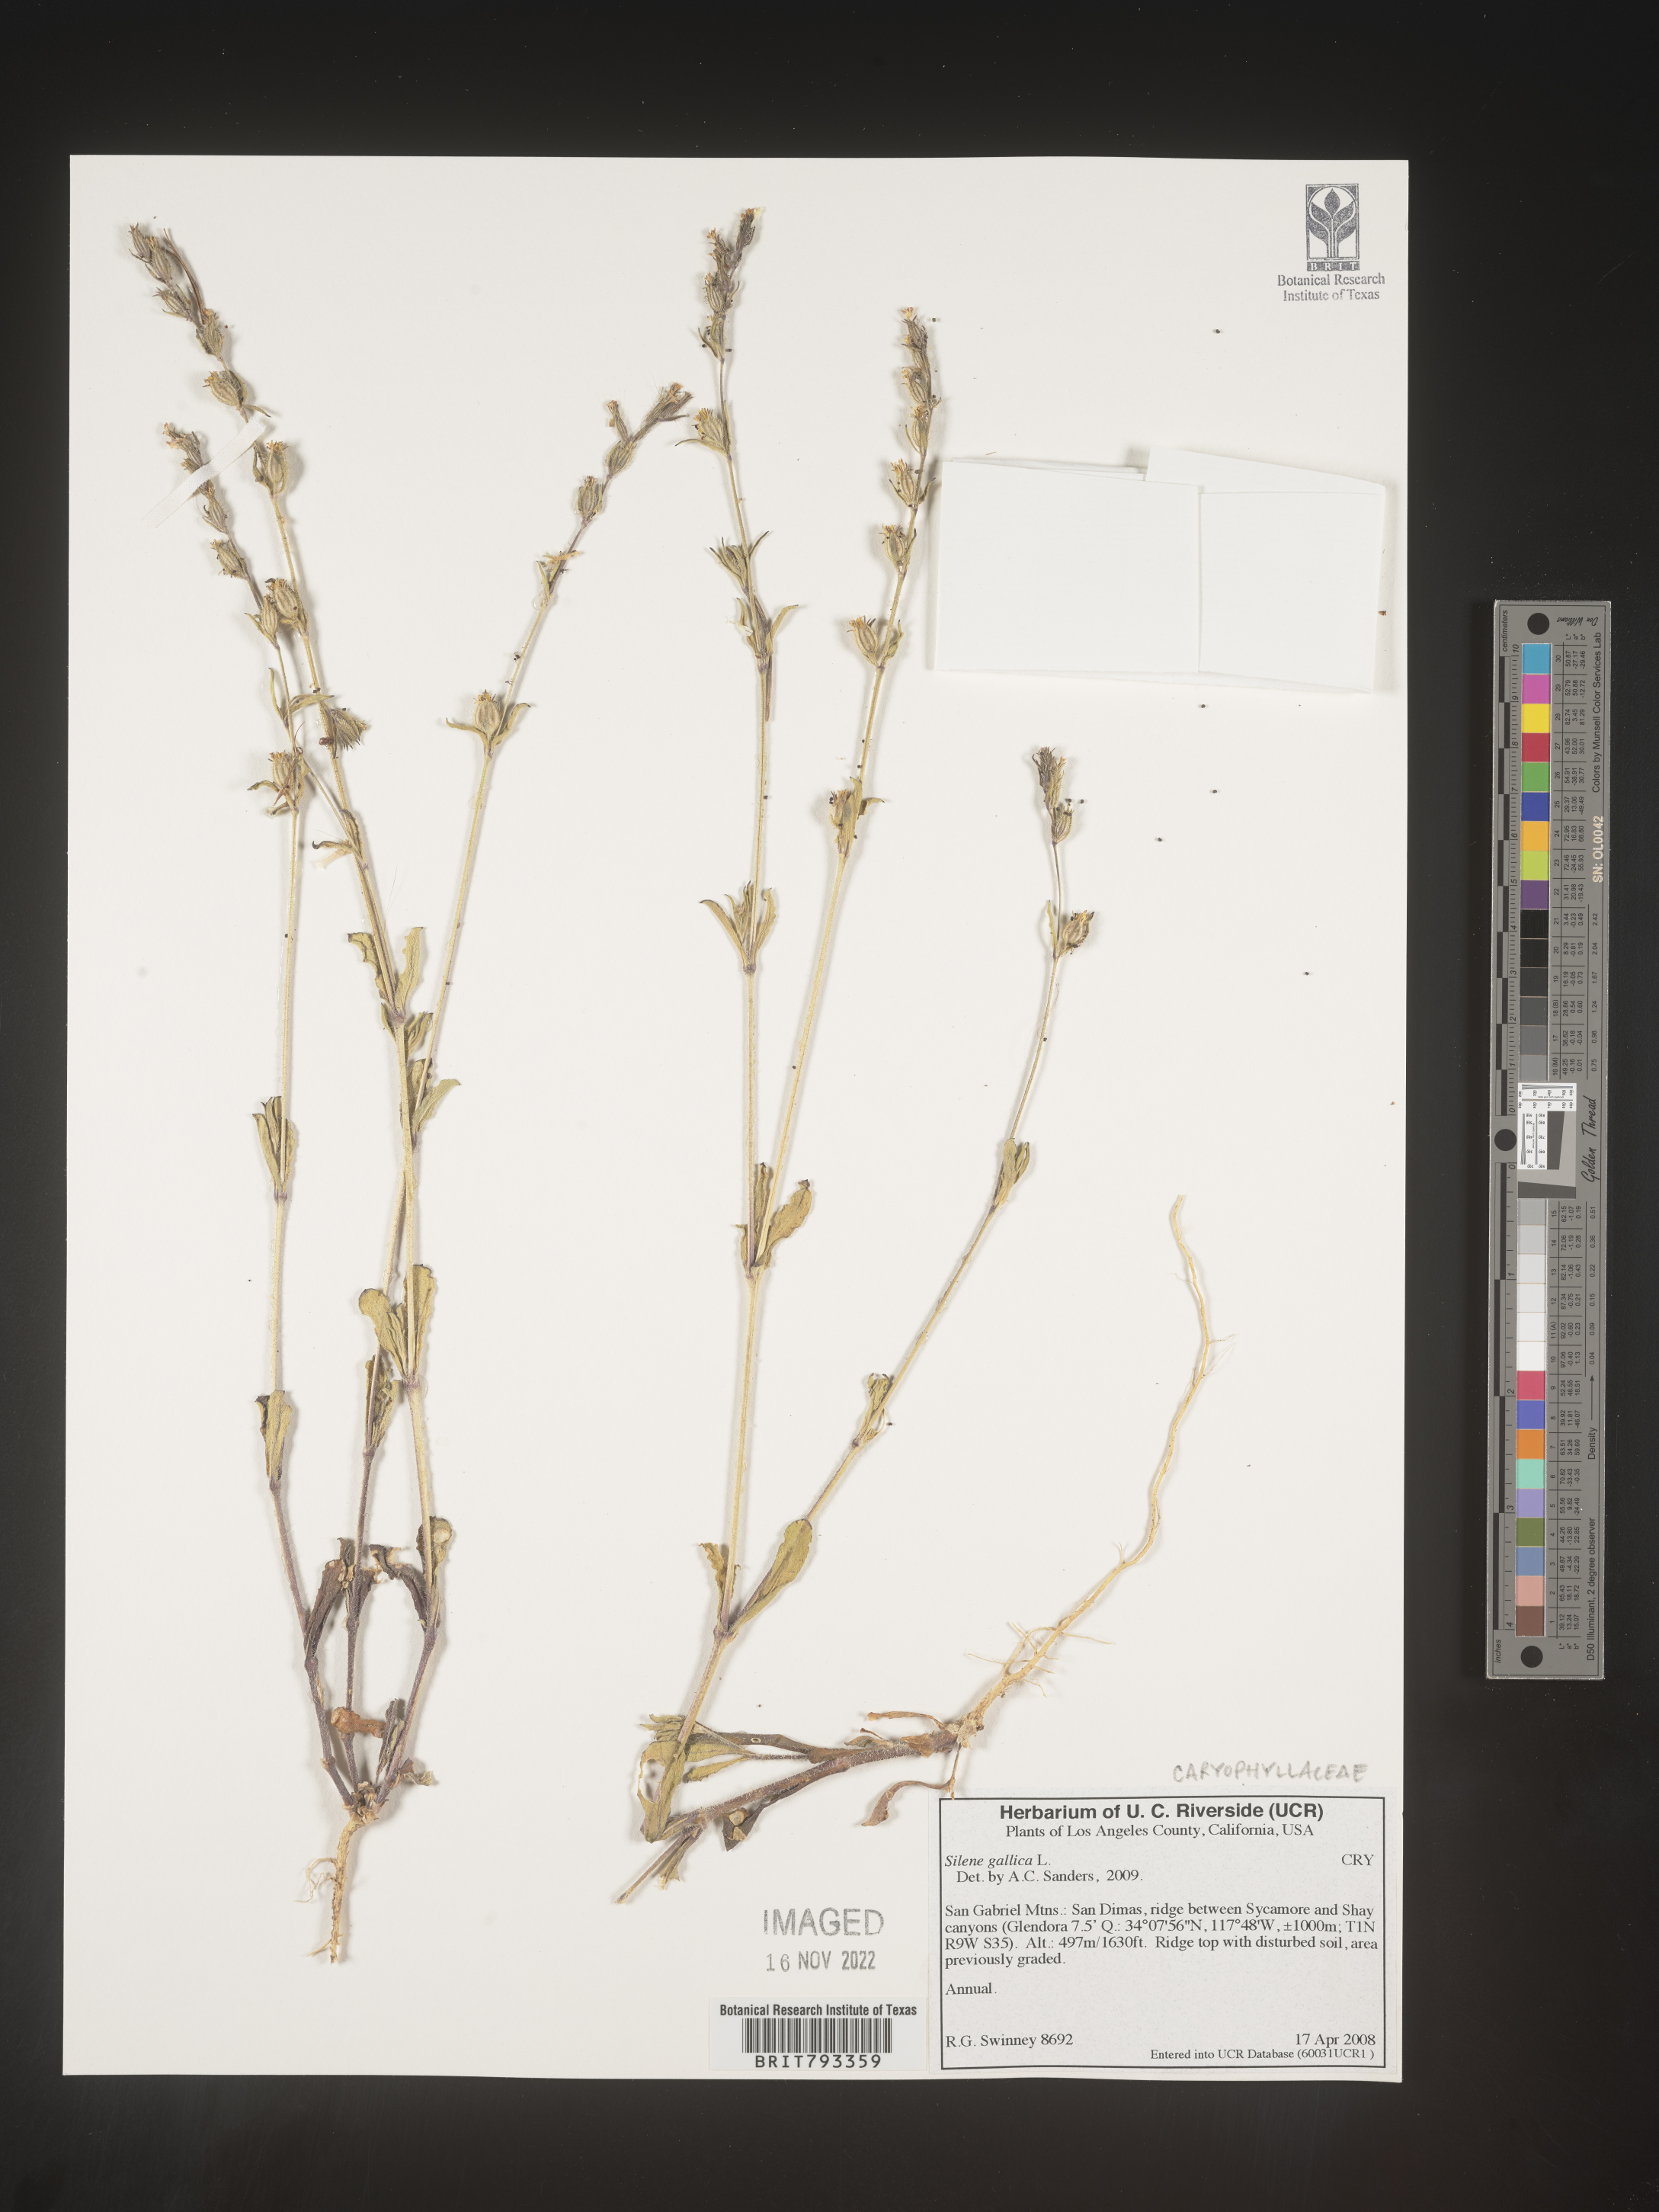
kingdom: Plantae
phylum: Tracheophyta
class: Magnoliopsida
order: Caryophyllales
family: Caryophyllaceae
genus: Silene
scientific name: Silene gallica
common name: Small-flowered catchfly
